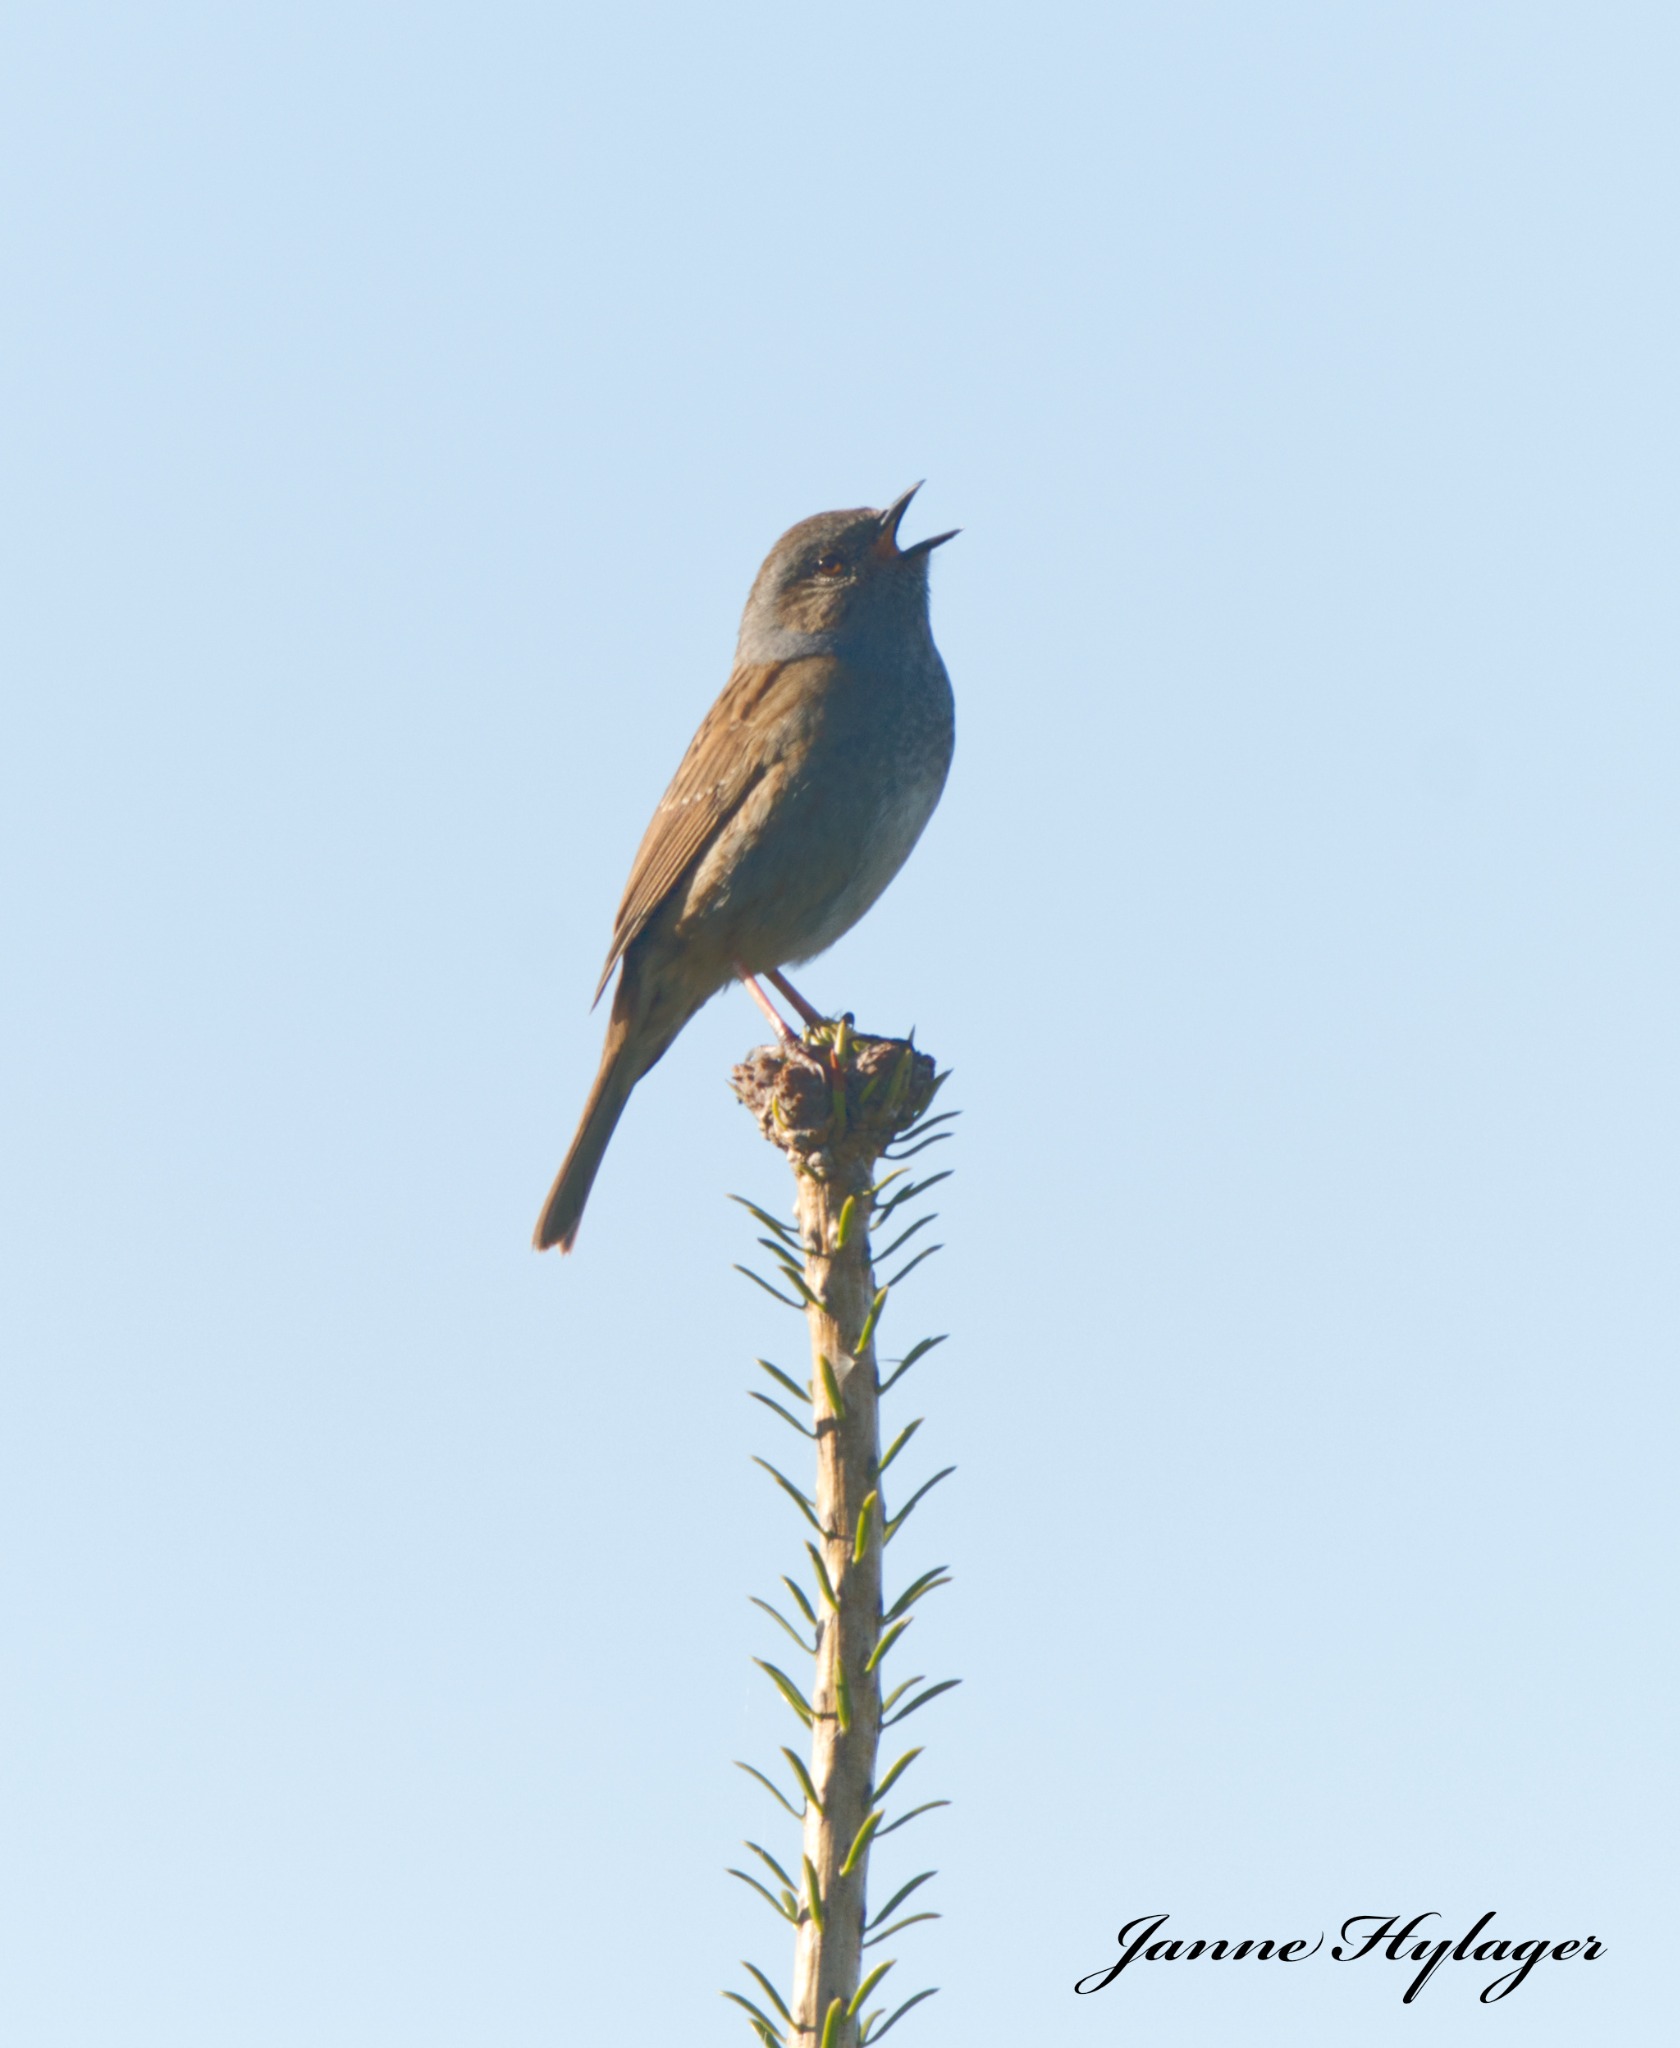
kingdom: Animalia
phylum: Chordata
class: Aves
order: Passeriformes
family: Prunellidae
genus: Prunella
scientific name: Prunella modularis
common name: Jernspurv
